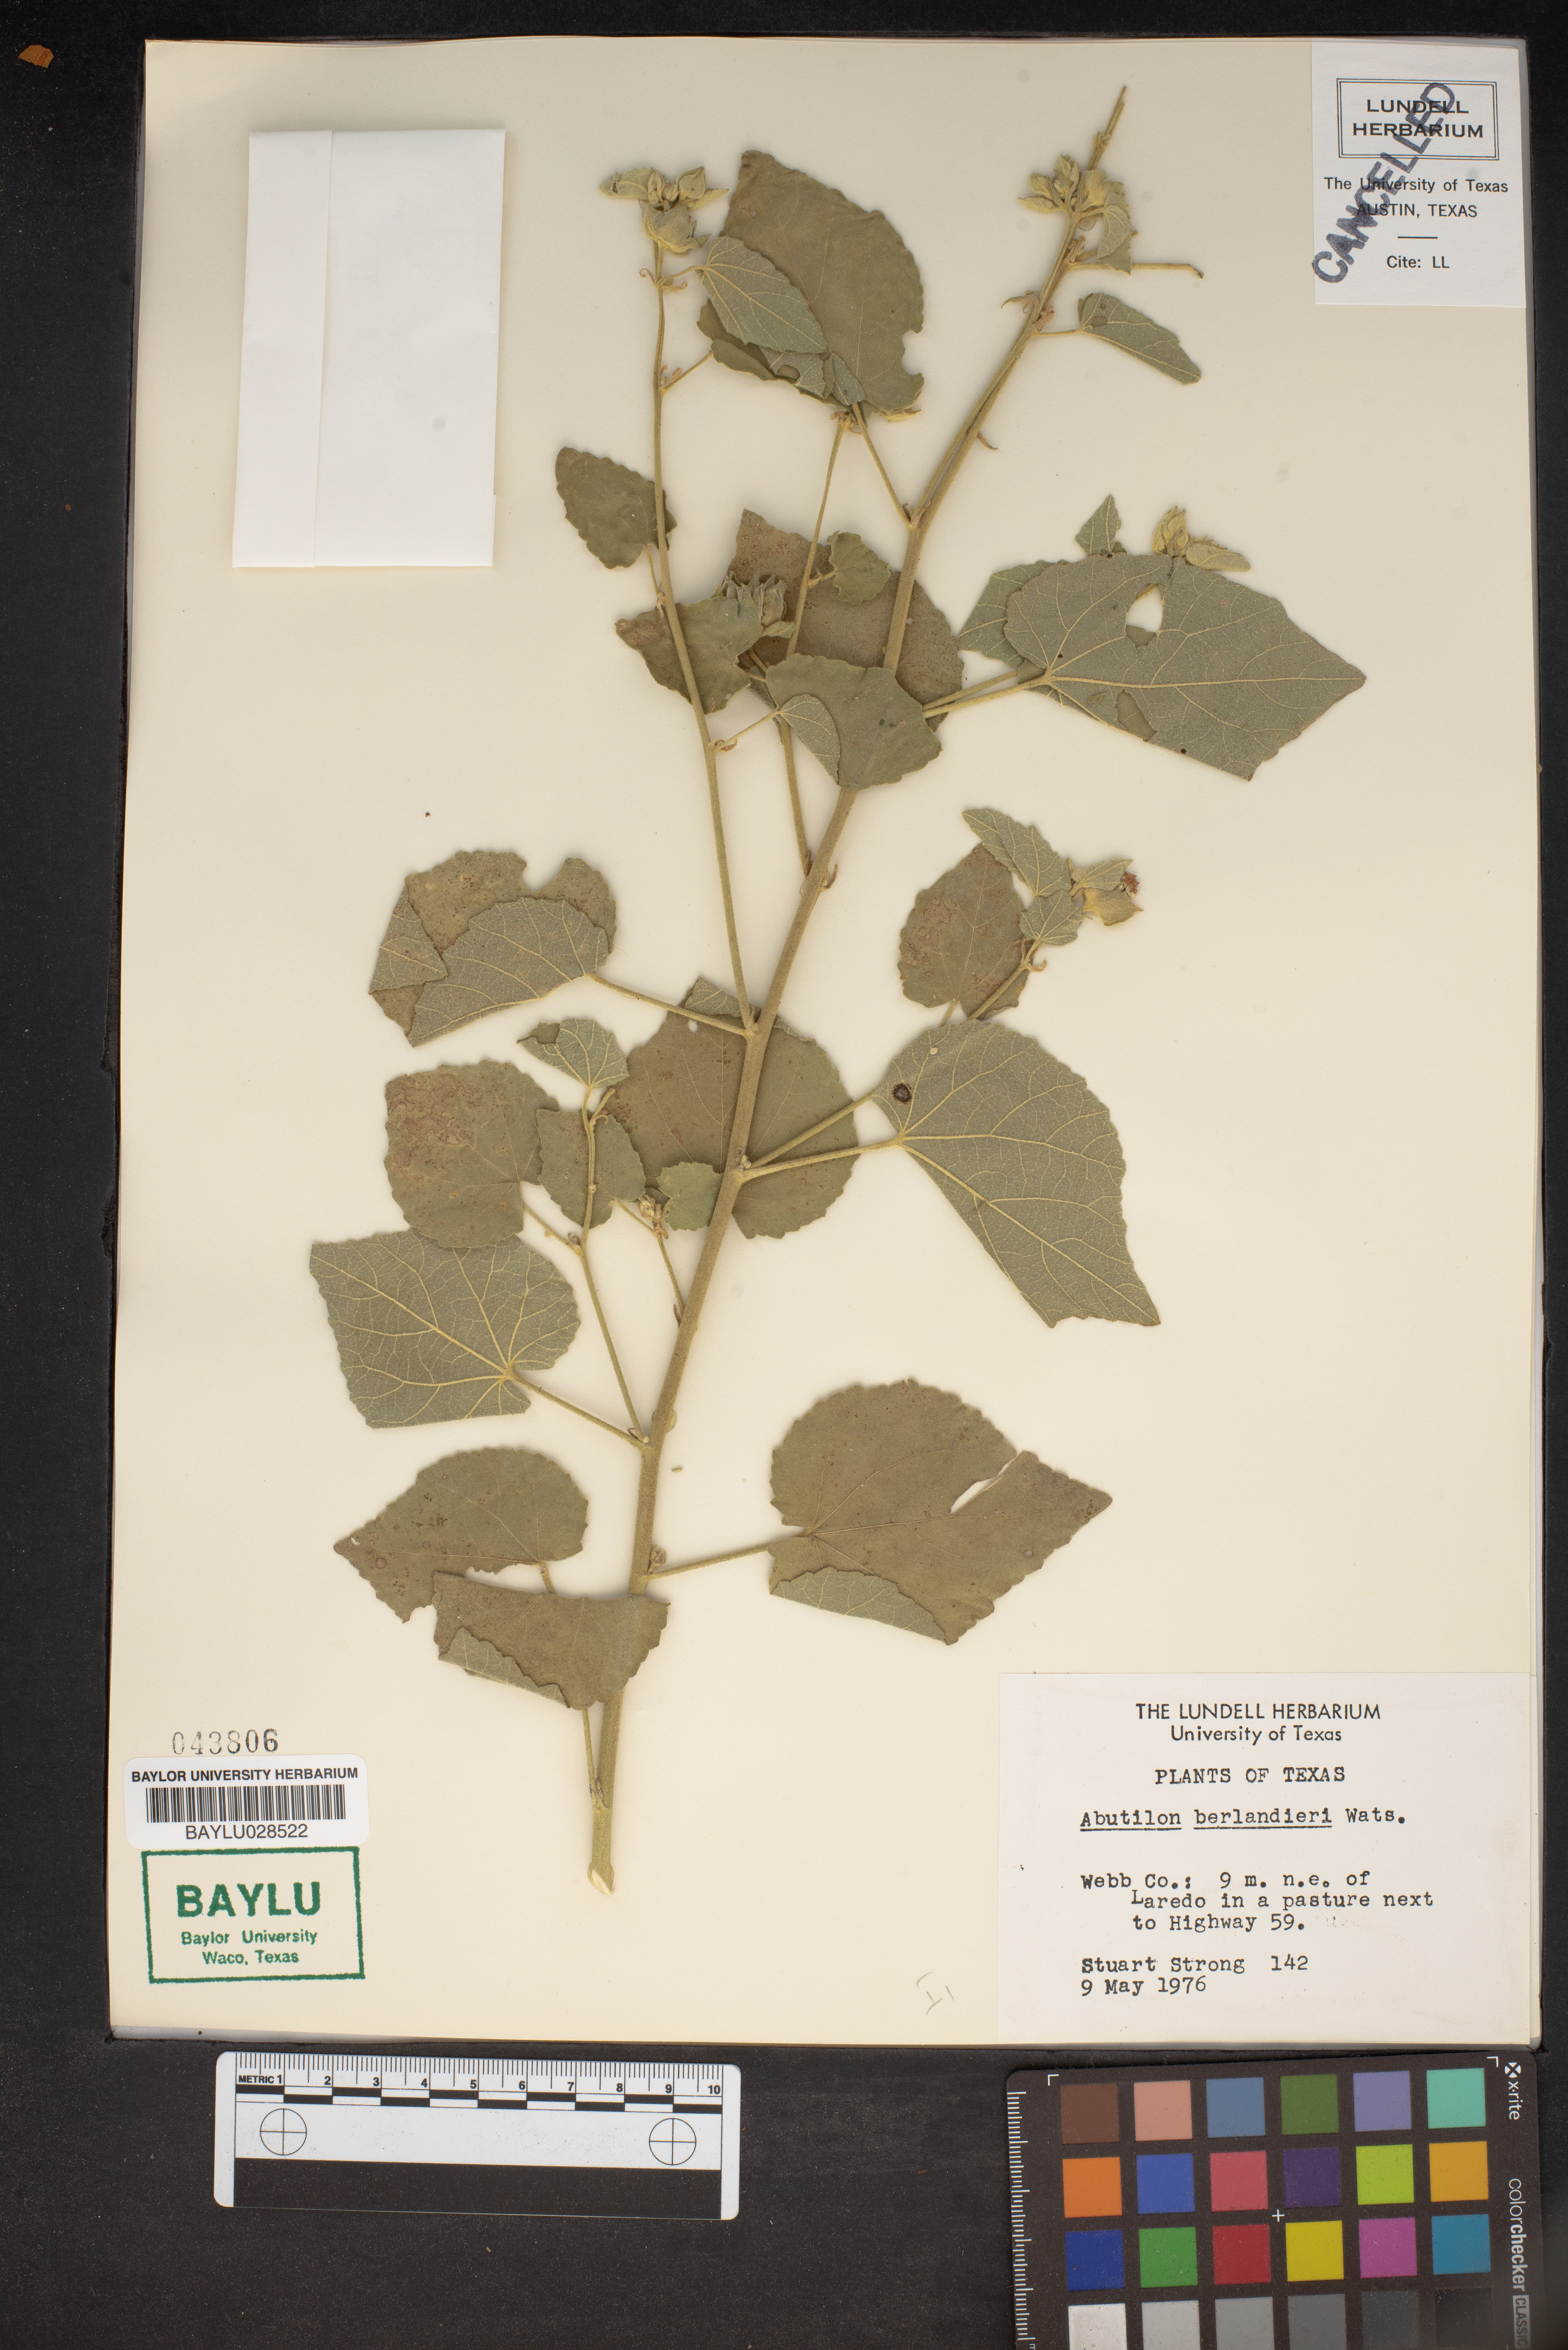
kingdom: Plantae
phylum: Tracheophyta
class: Magnoliopsida
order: Malvales
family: Malvaceae
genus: Abutilon
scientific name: Abutilon berlandieri
